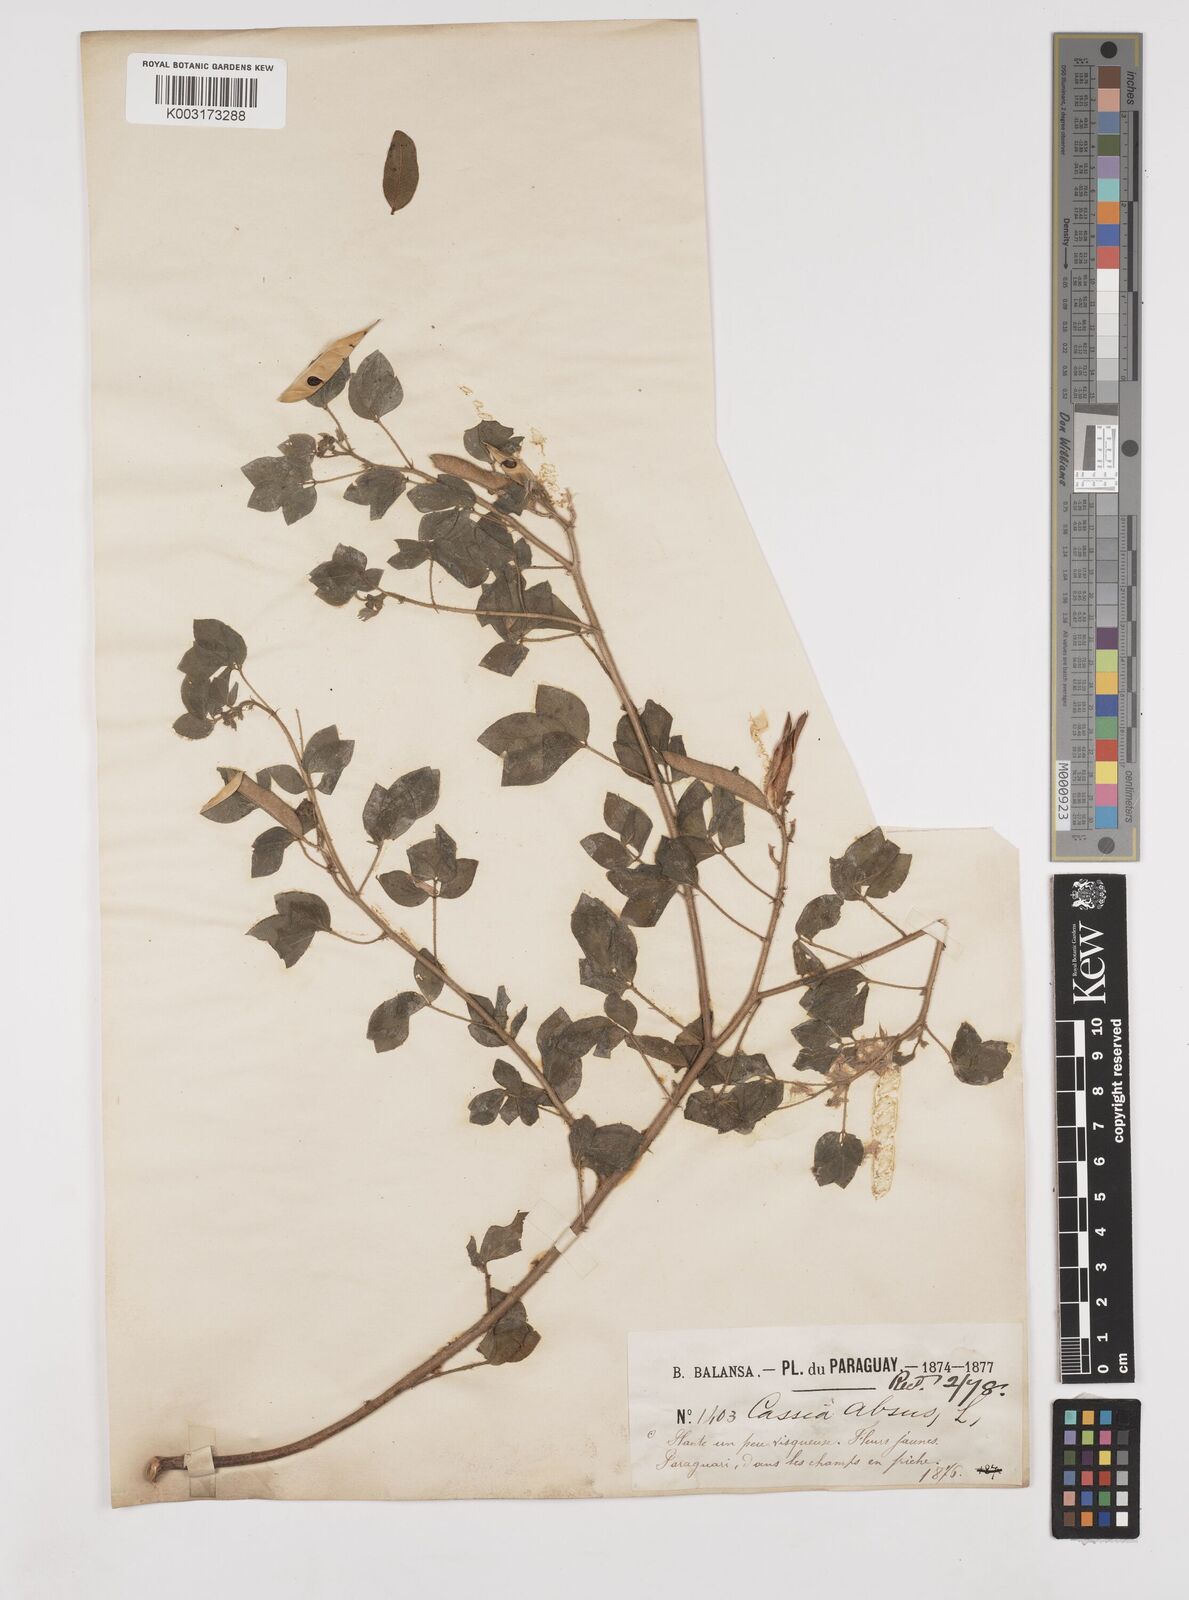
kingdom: Plantae
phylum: Tracheophyta
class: Magnoliopsida
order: Fabales
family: Fabaceae
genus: Chamaecrista
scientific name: Chamaecrista absus
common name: Tropical sensitive pea
